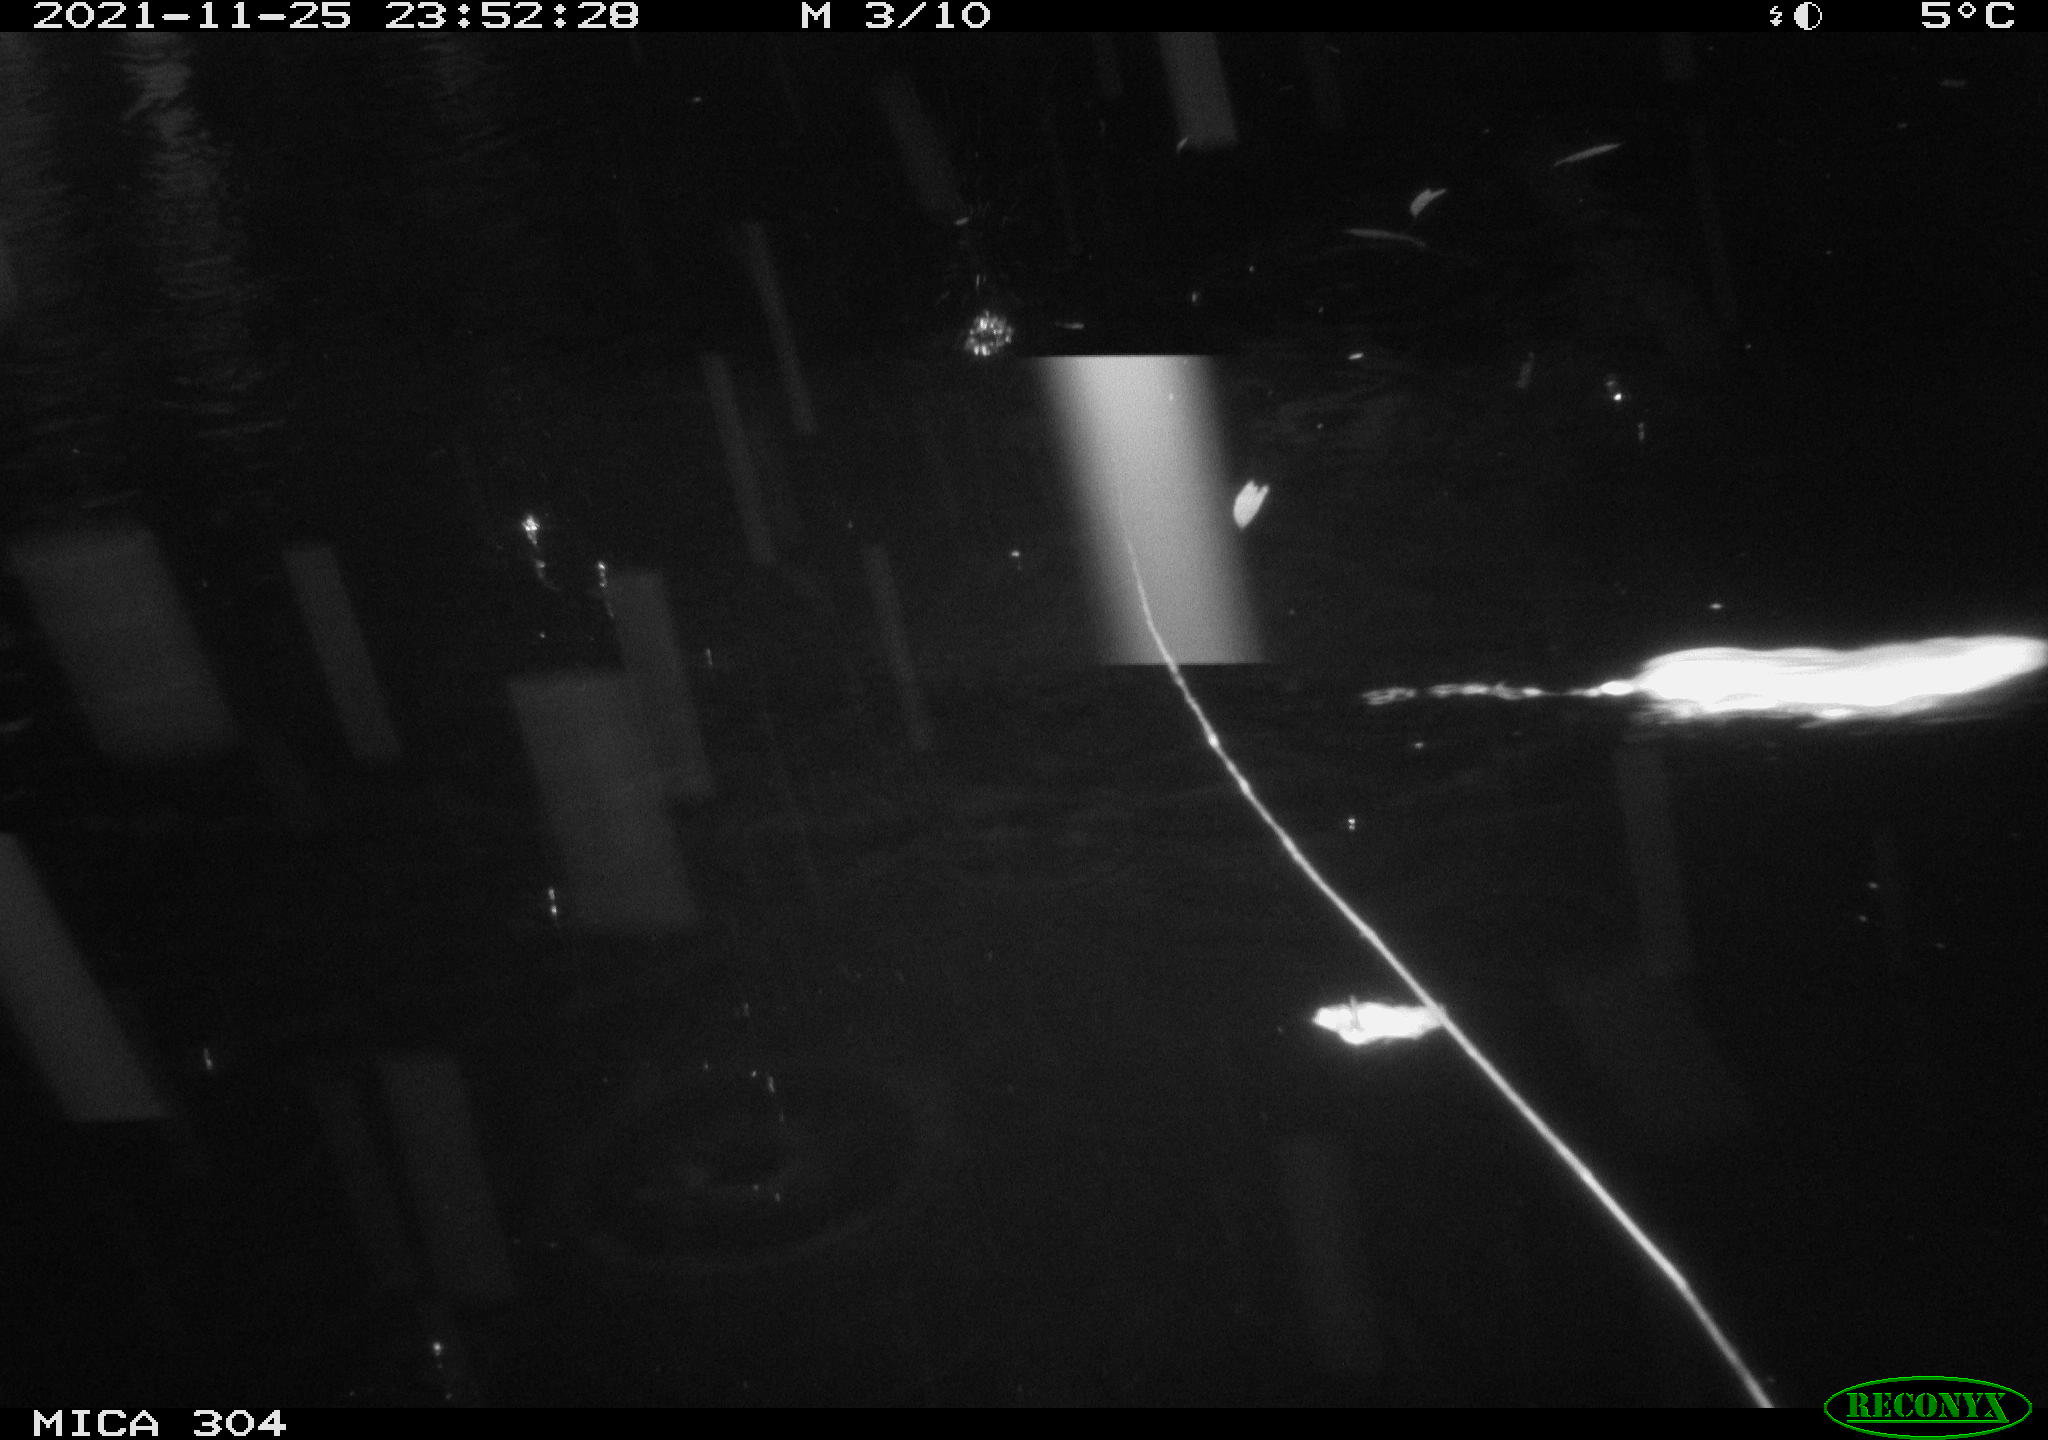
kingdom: Animalia
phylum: Chordata
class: Mammalia
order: Rodentia
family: Muridae
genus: Rattus
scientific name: Rattus norvegicus
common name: Brown rat
